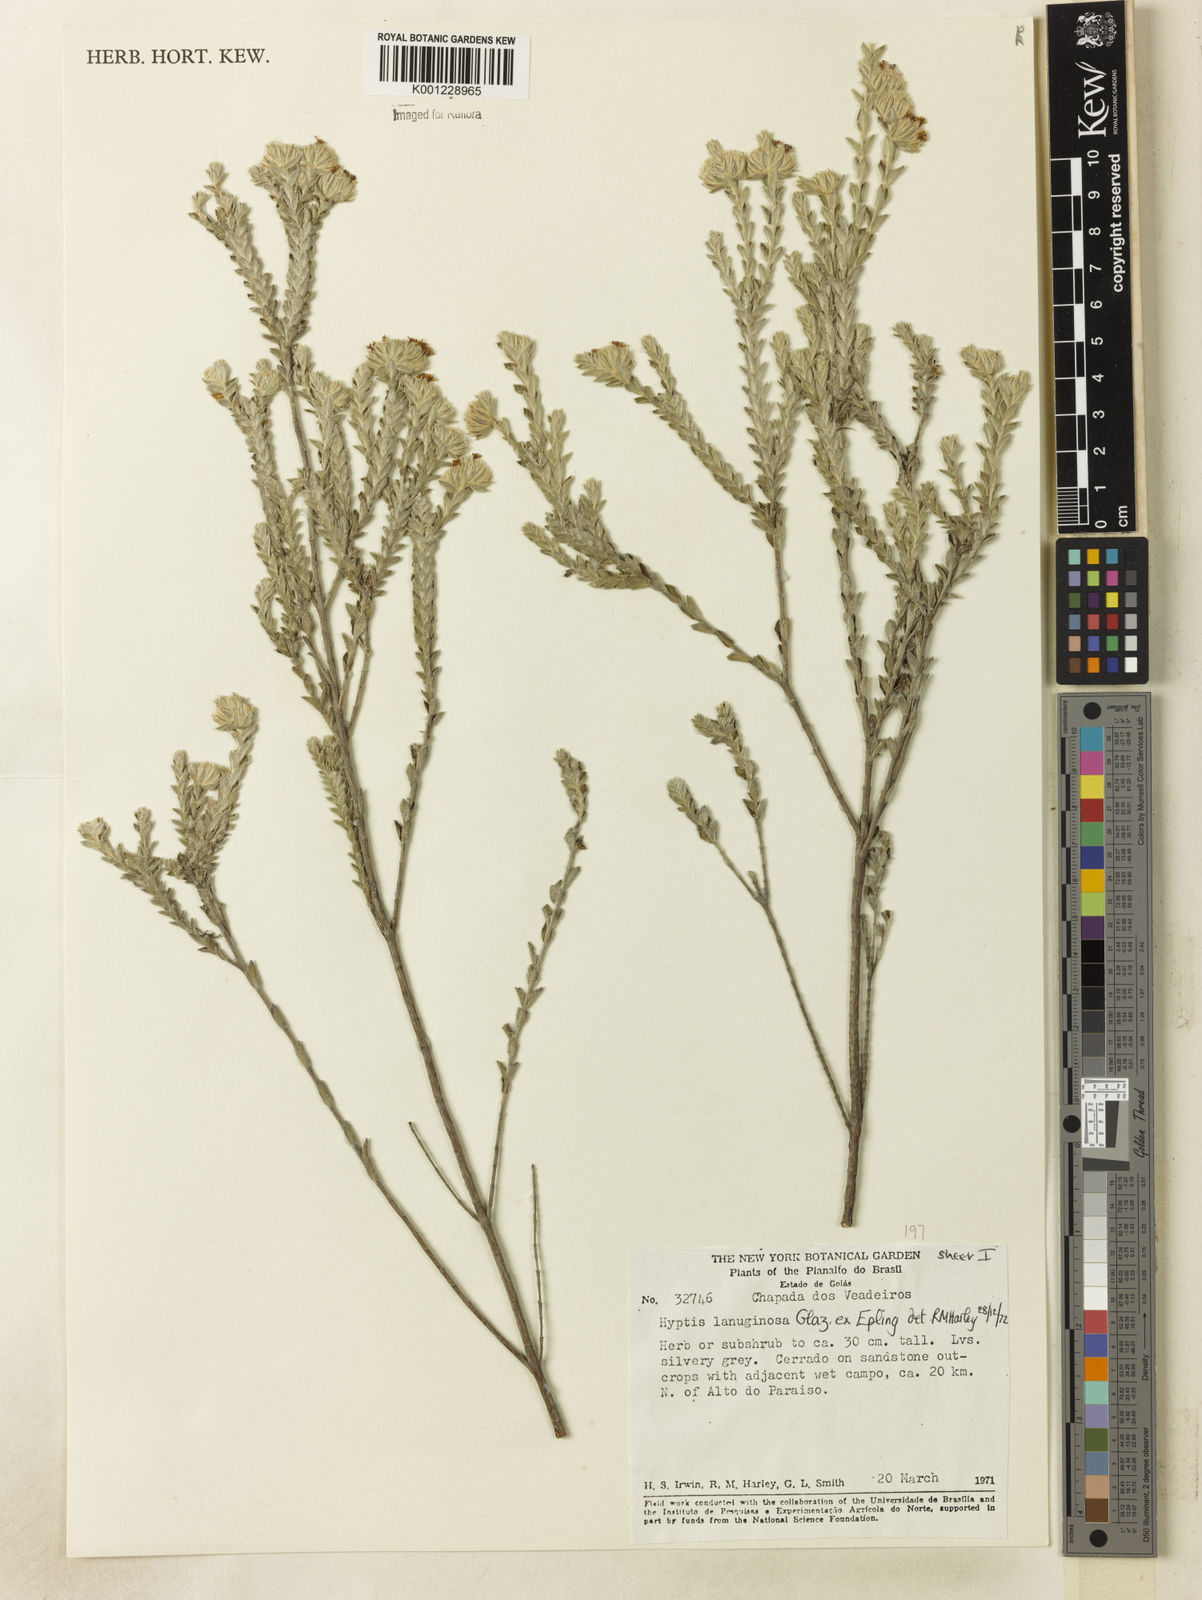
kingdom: Plantae
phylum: Tracheophyta
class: Magnoliopsida
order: Lamiales
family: Lamiaceae
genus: Hyptis
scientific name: Hyptis lanuginosa
